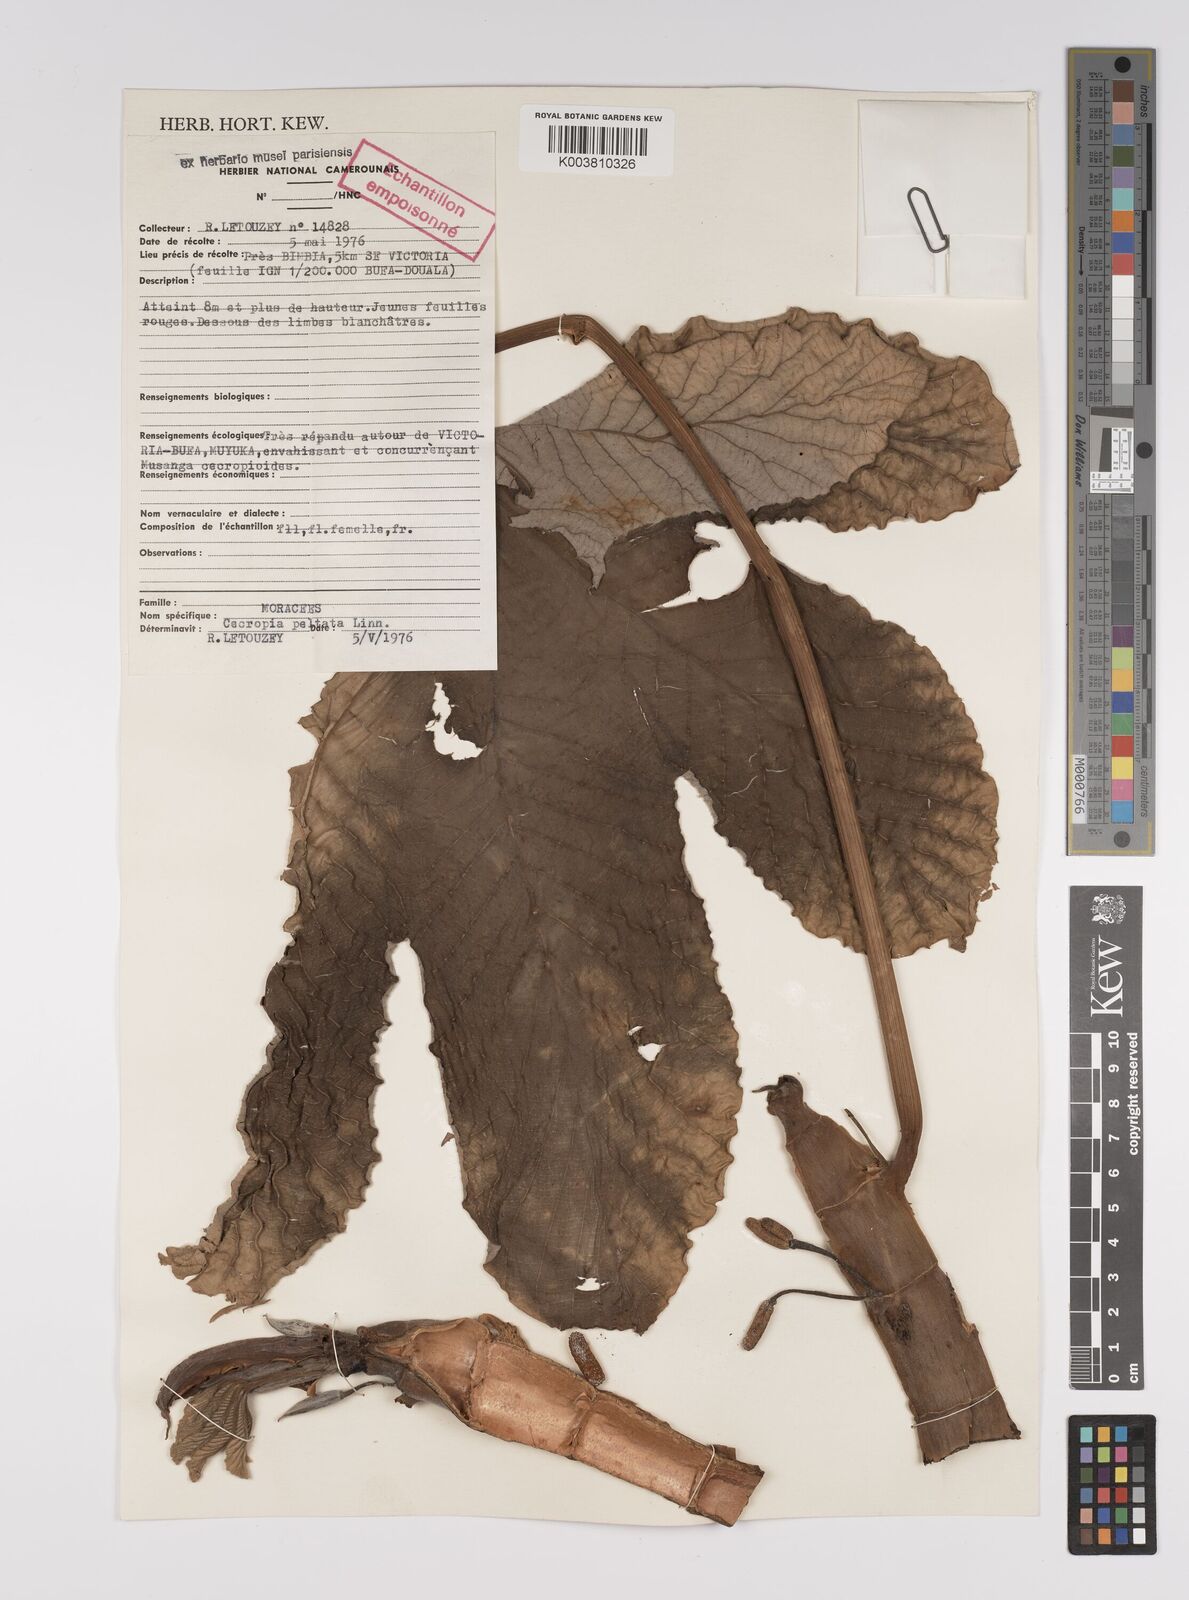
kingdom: Plantae
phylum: Tracheophyta
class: Magnoliopsida
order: Rosales
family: Urticaceae
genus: Cecropia
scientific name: Cecropia peltata
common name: Trumpet-tree
